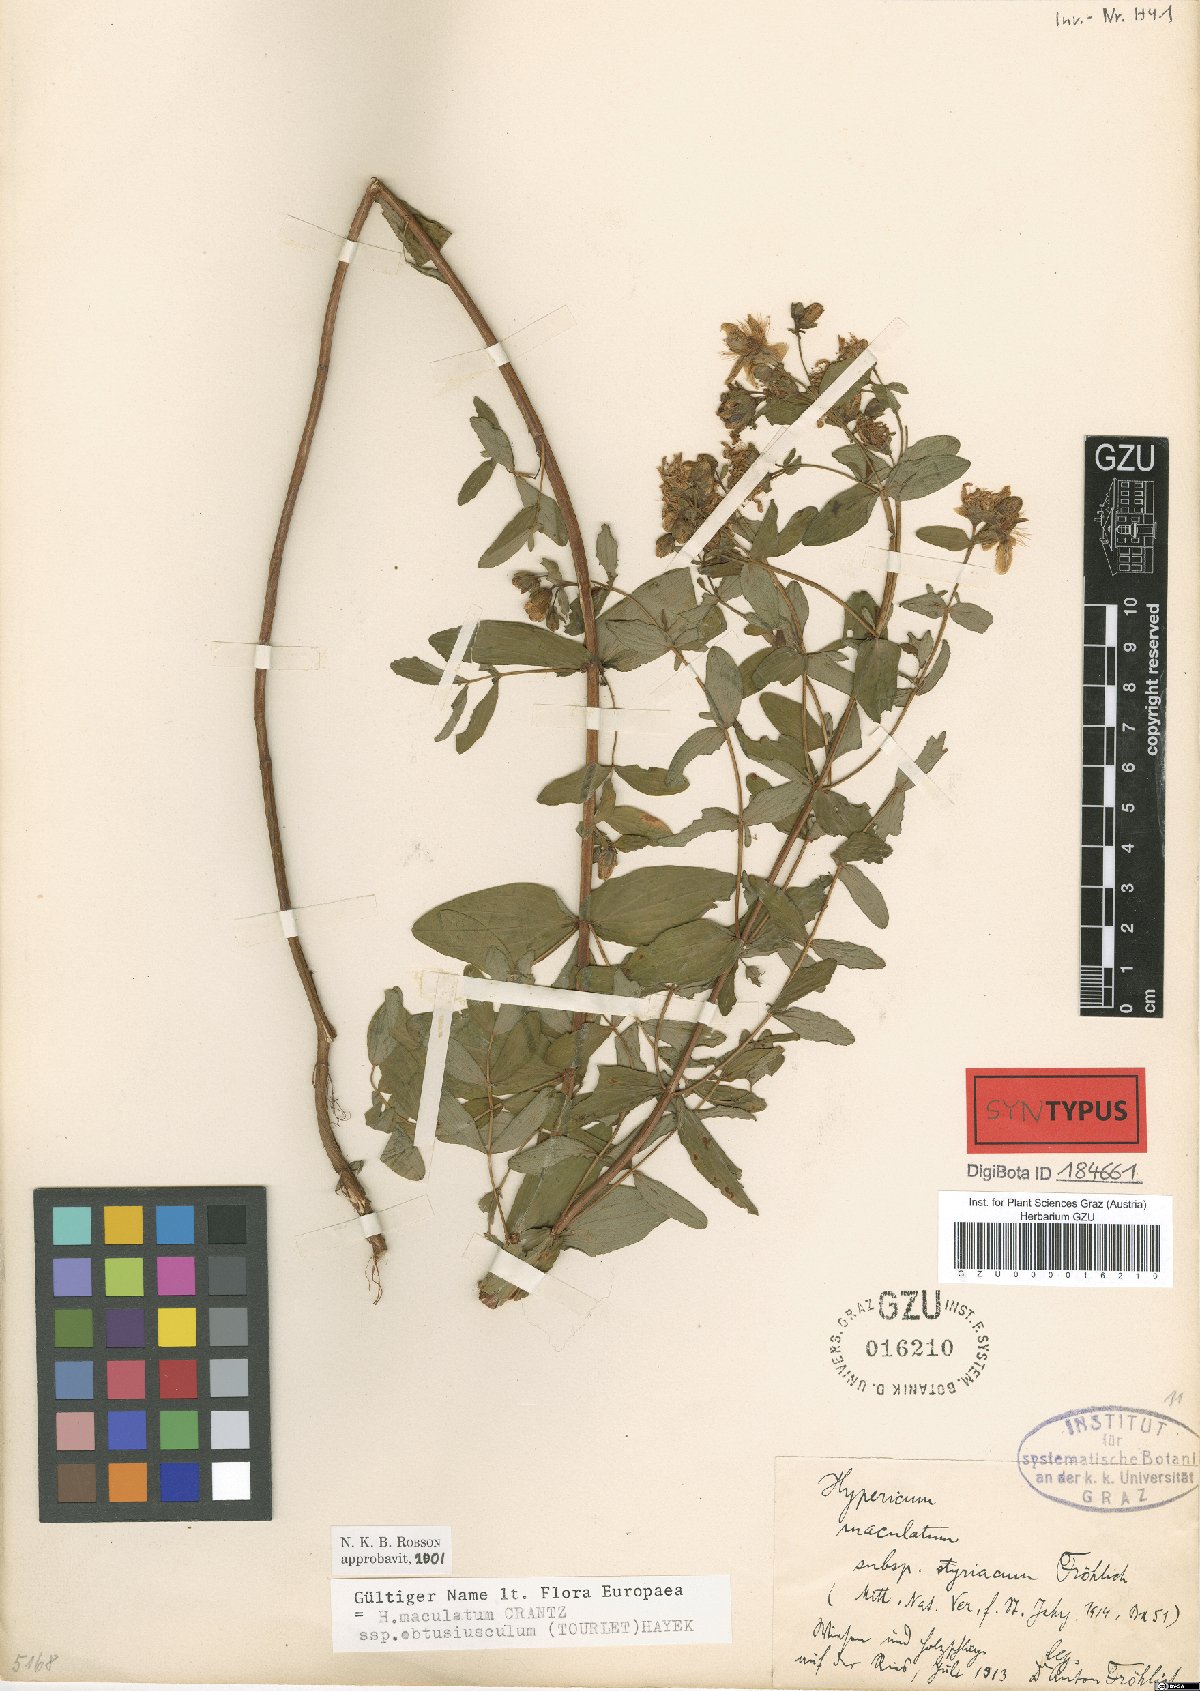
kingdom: Plantae
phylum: Tracheophyta
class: Magnoliopsida
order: Malpighiales
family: Hypericaceae
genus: Hypericum
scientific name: Hypericum dubium
